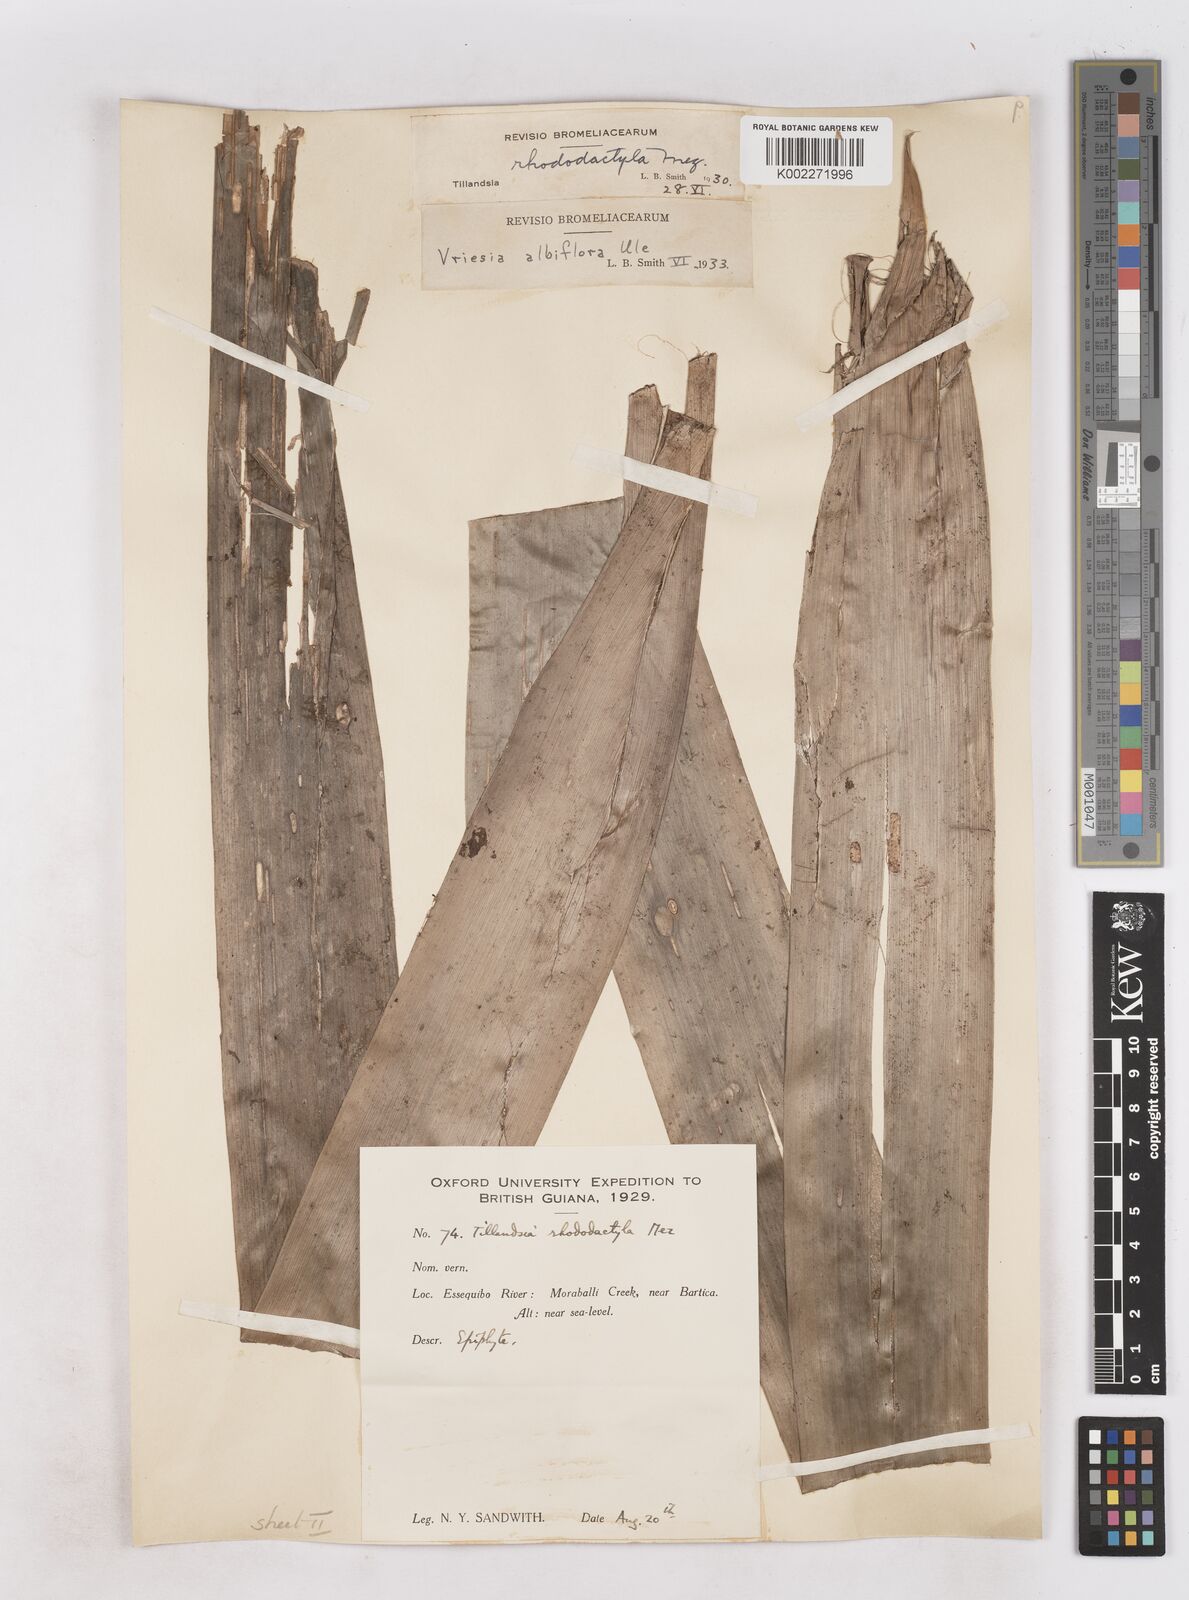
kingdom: Plantae
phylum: Tracheophyta
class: Liliopsida
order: Poales
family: Bromeliaceae
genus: Vriesea
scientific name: Vriesea rubra
